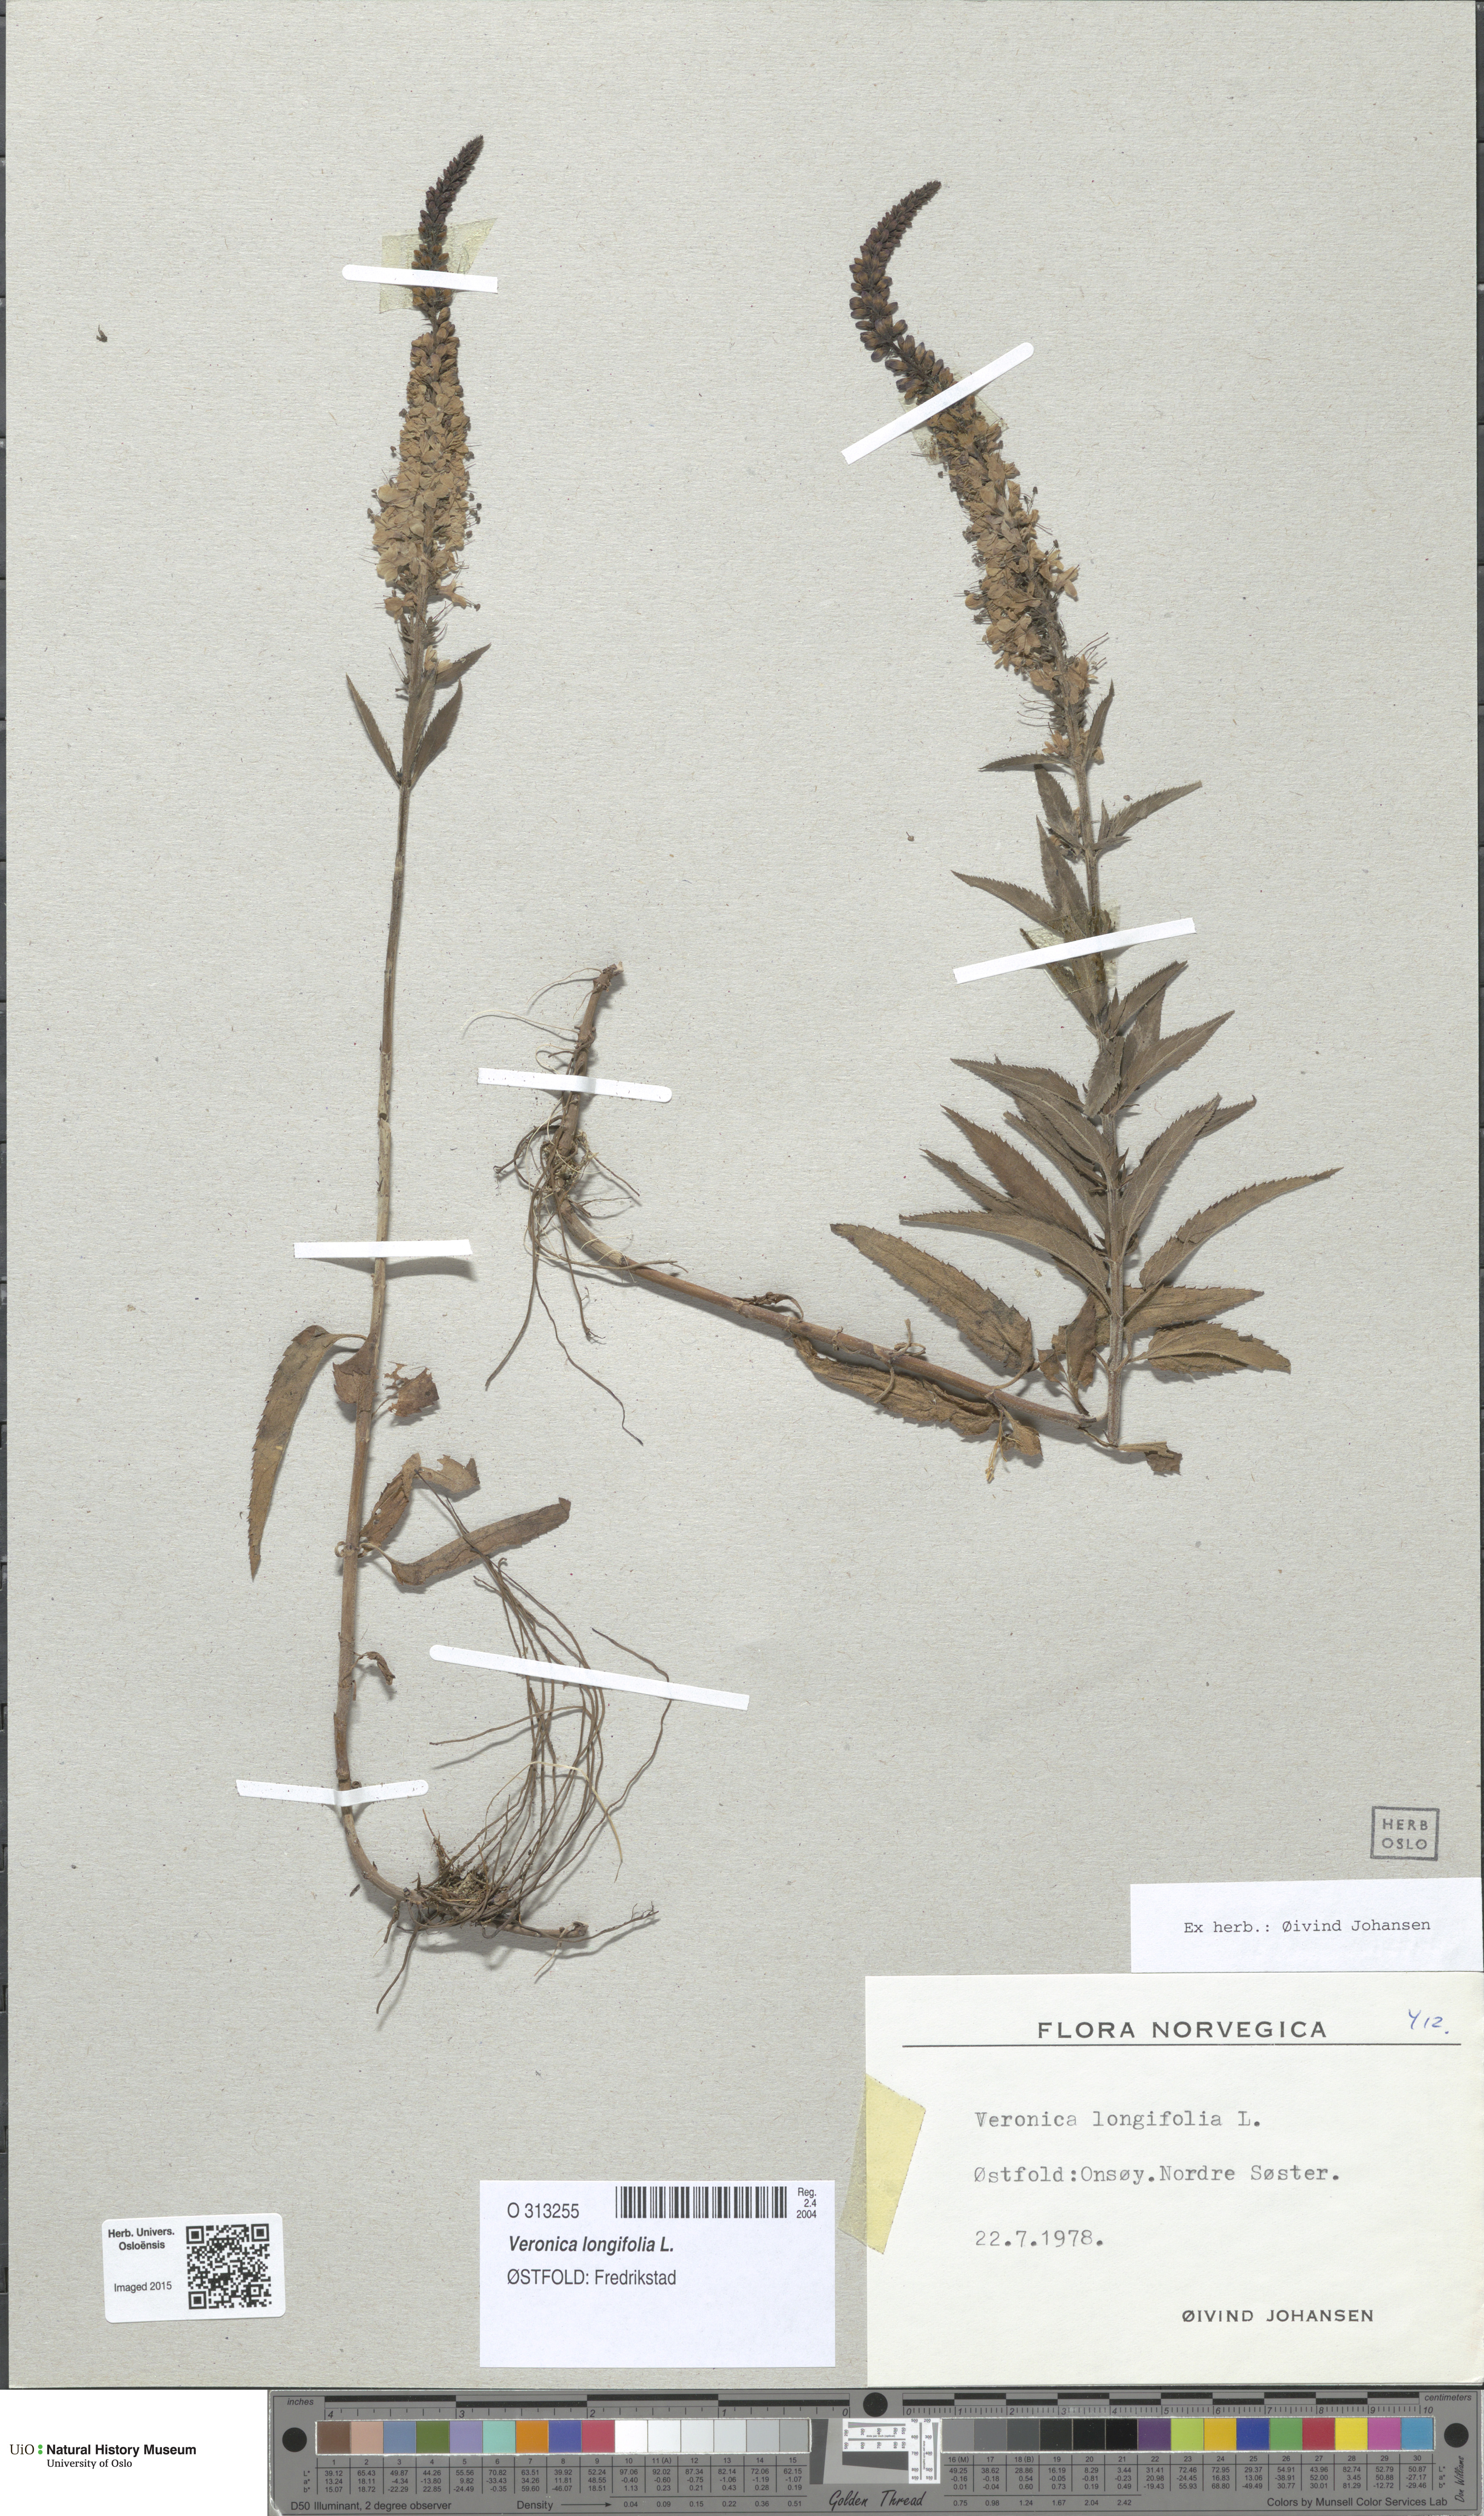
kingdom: Plantae
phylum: Tracheophyta
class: Magnoliopsida
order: Lamiales
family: Plantaginaceae
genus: Veronica
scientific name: Veronica longifolia
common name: Garden speedwell
